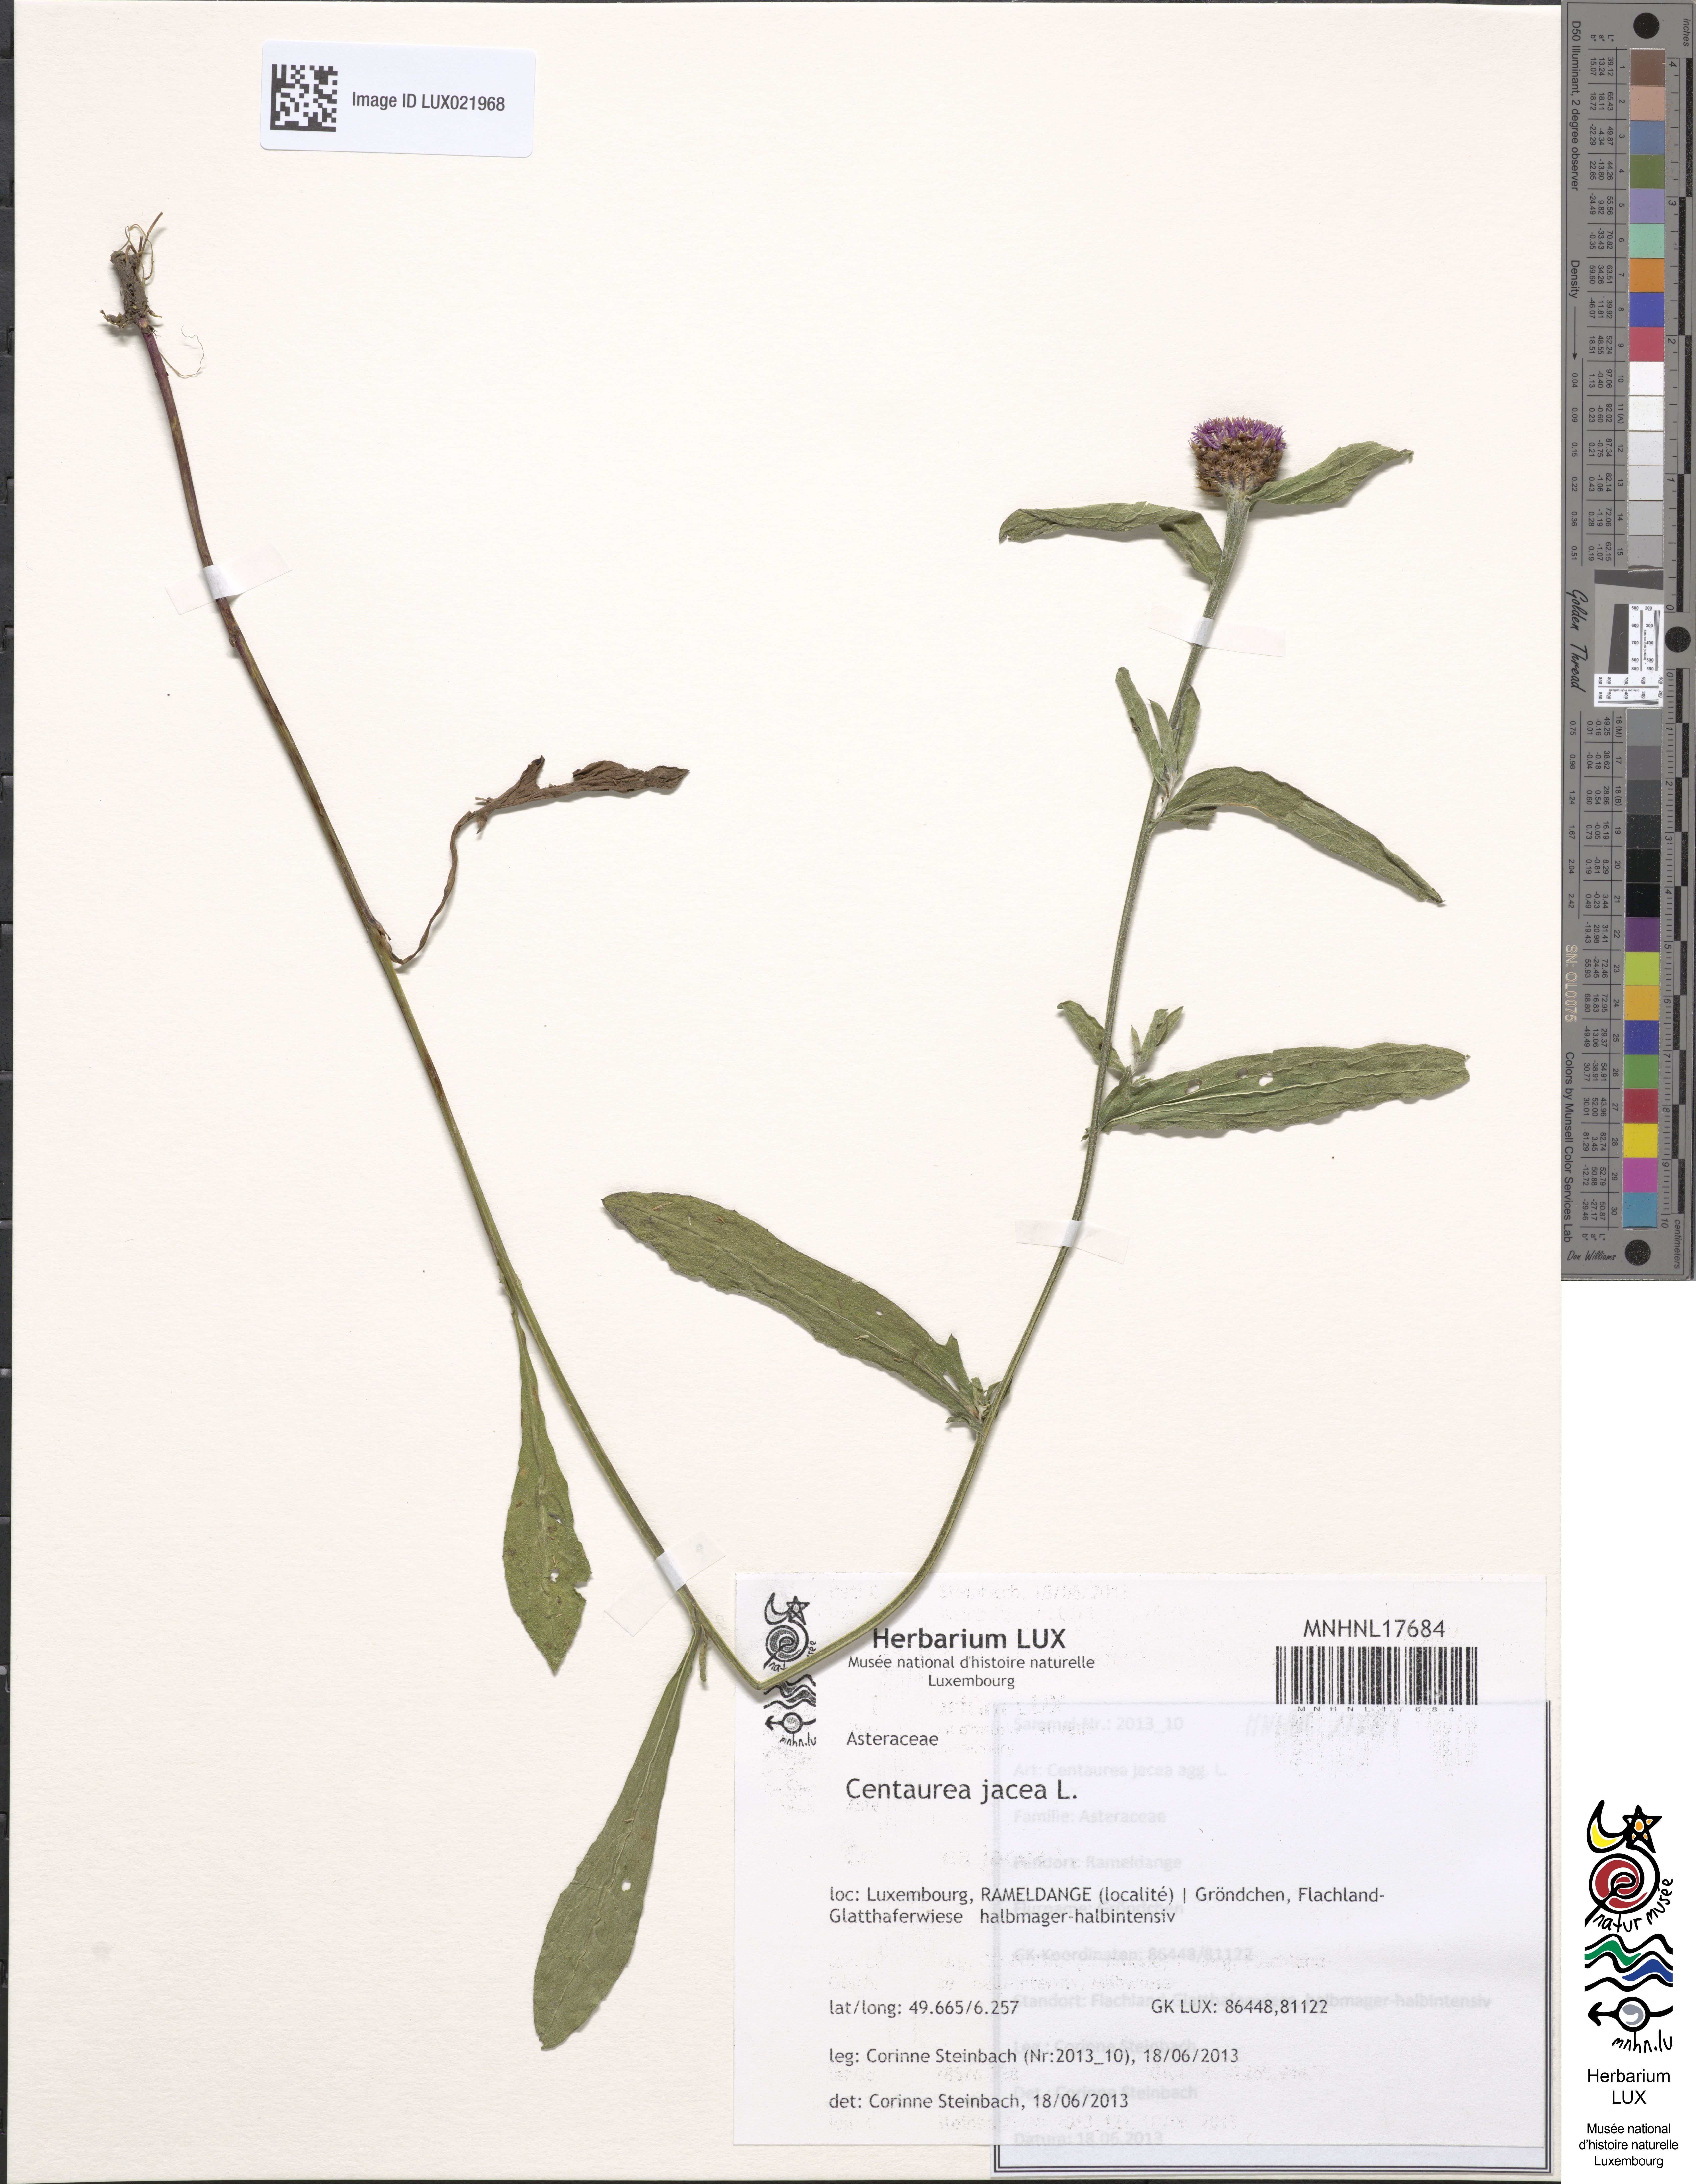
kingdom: Plantae
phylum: Tracheophyta
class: Magnoliopsida
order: Asterales
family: Asteraceae
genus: Centaurea
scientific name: Centaurea jacea
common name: Brown knapweed
